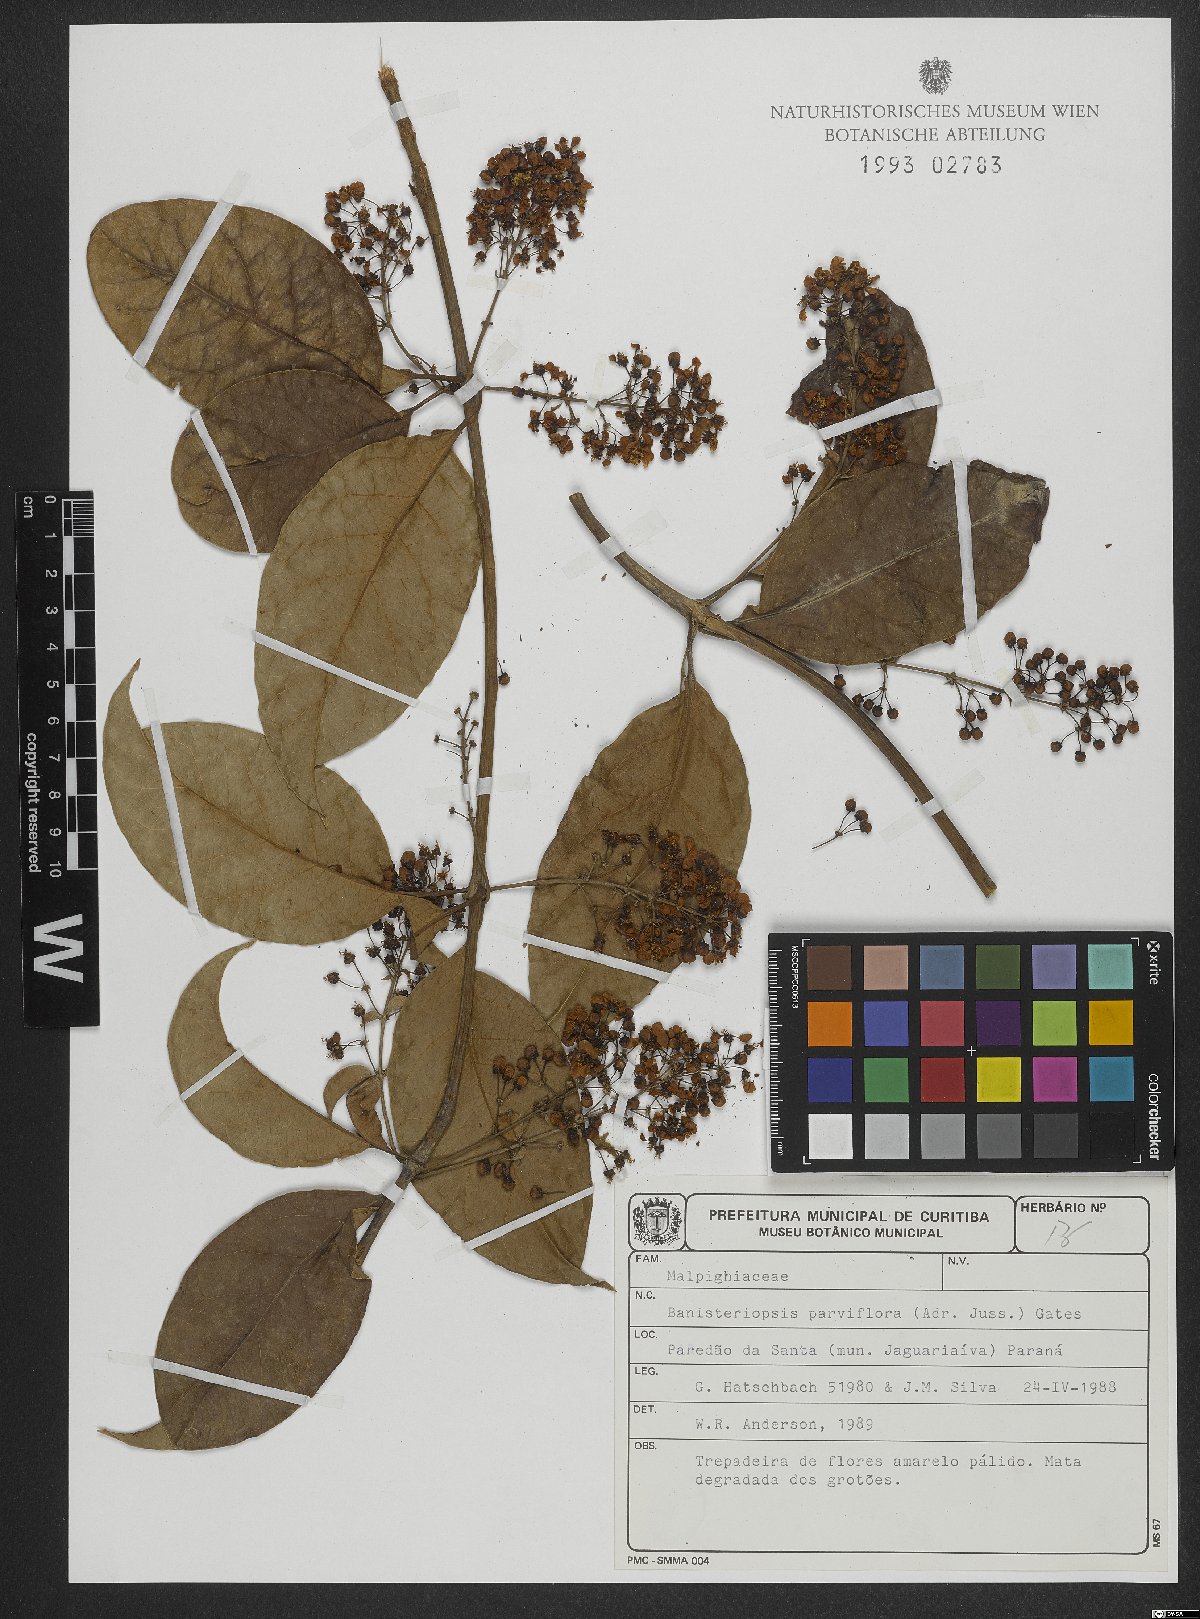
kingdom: Plantae
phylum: Tracheophyta
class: Magnoliopsida
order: Malpighiales
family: Malpighiaceae
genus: Banisteriopsis
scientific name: Banisteriopsis parviflora
